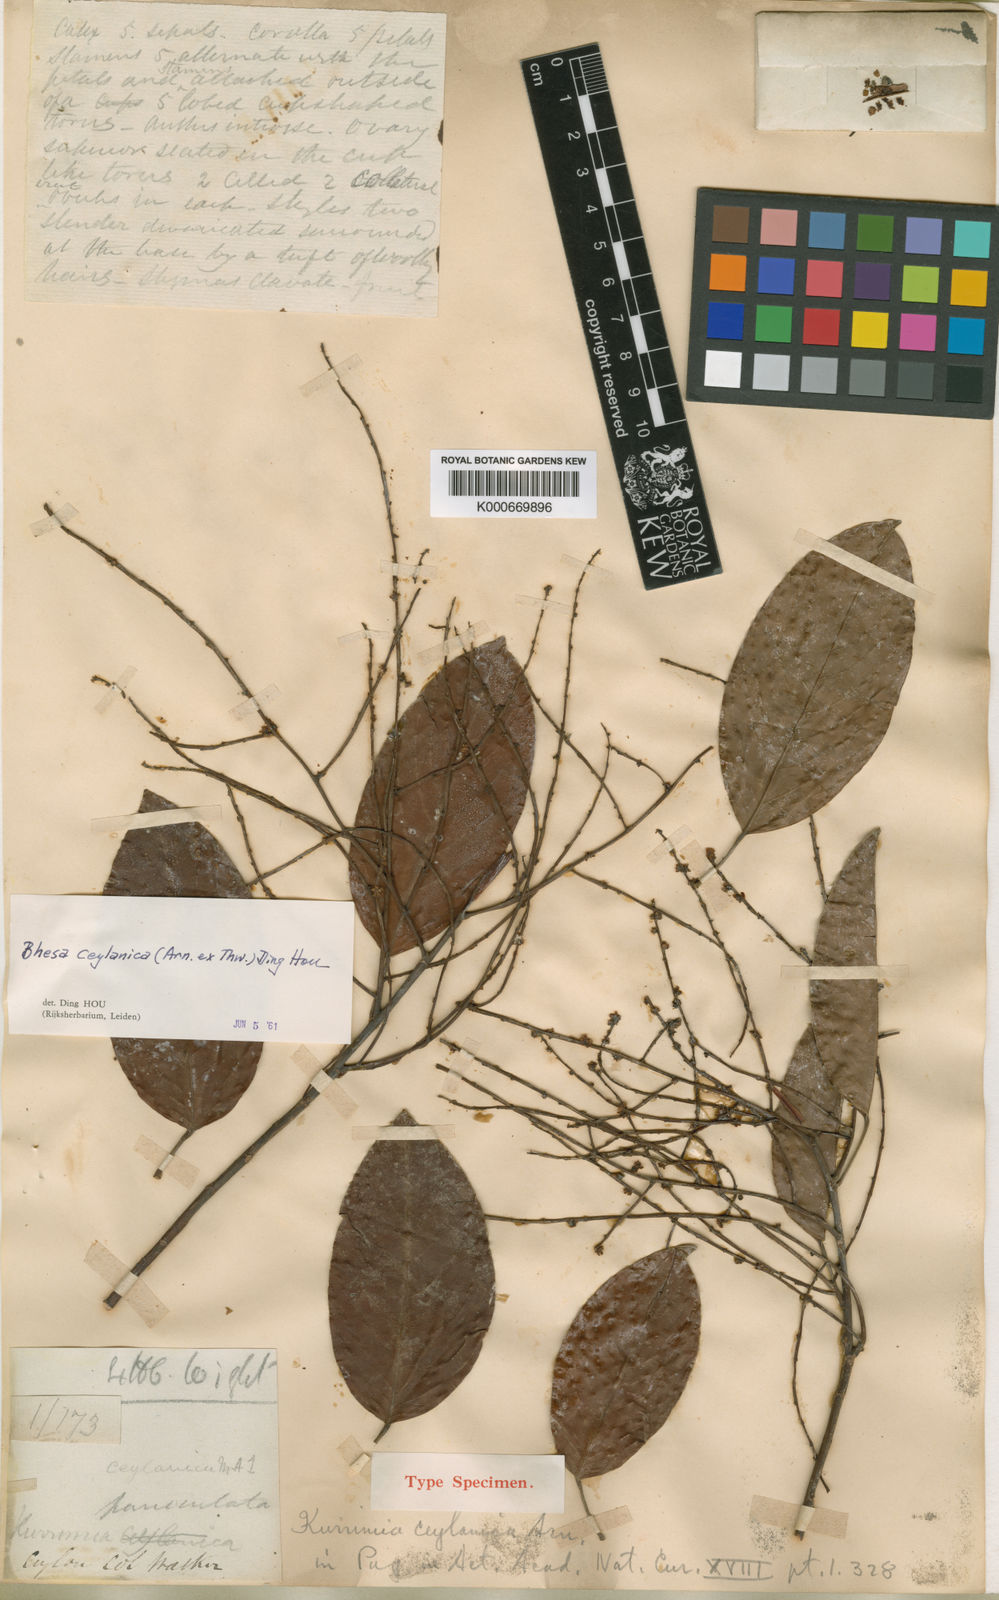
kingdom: Plantae
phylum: Tracheophyta
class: Magnoliopsida
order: Malpighiales
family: Centroplacaceae
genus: Bhesa
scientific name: Bhesa ceylanica
